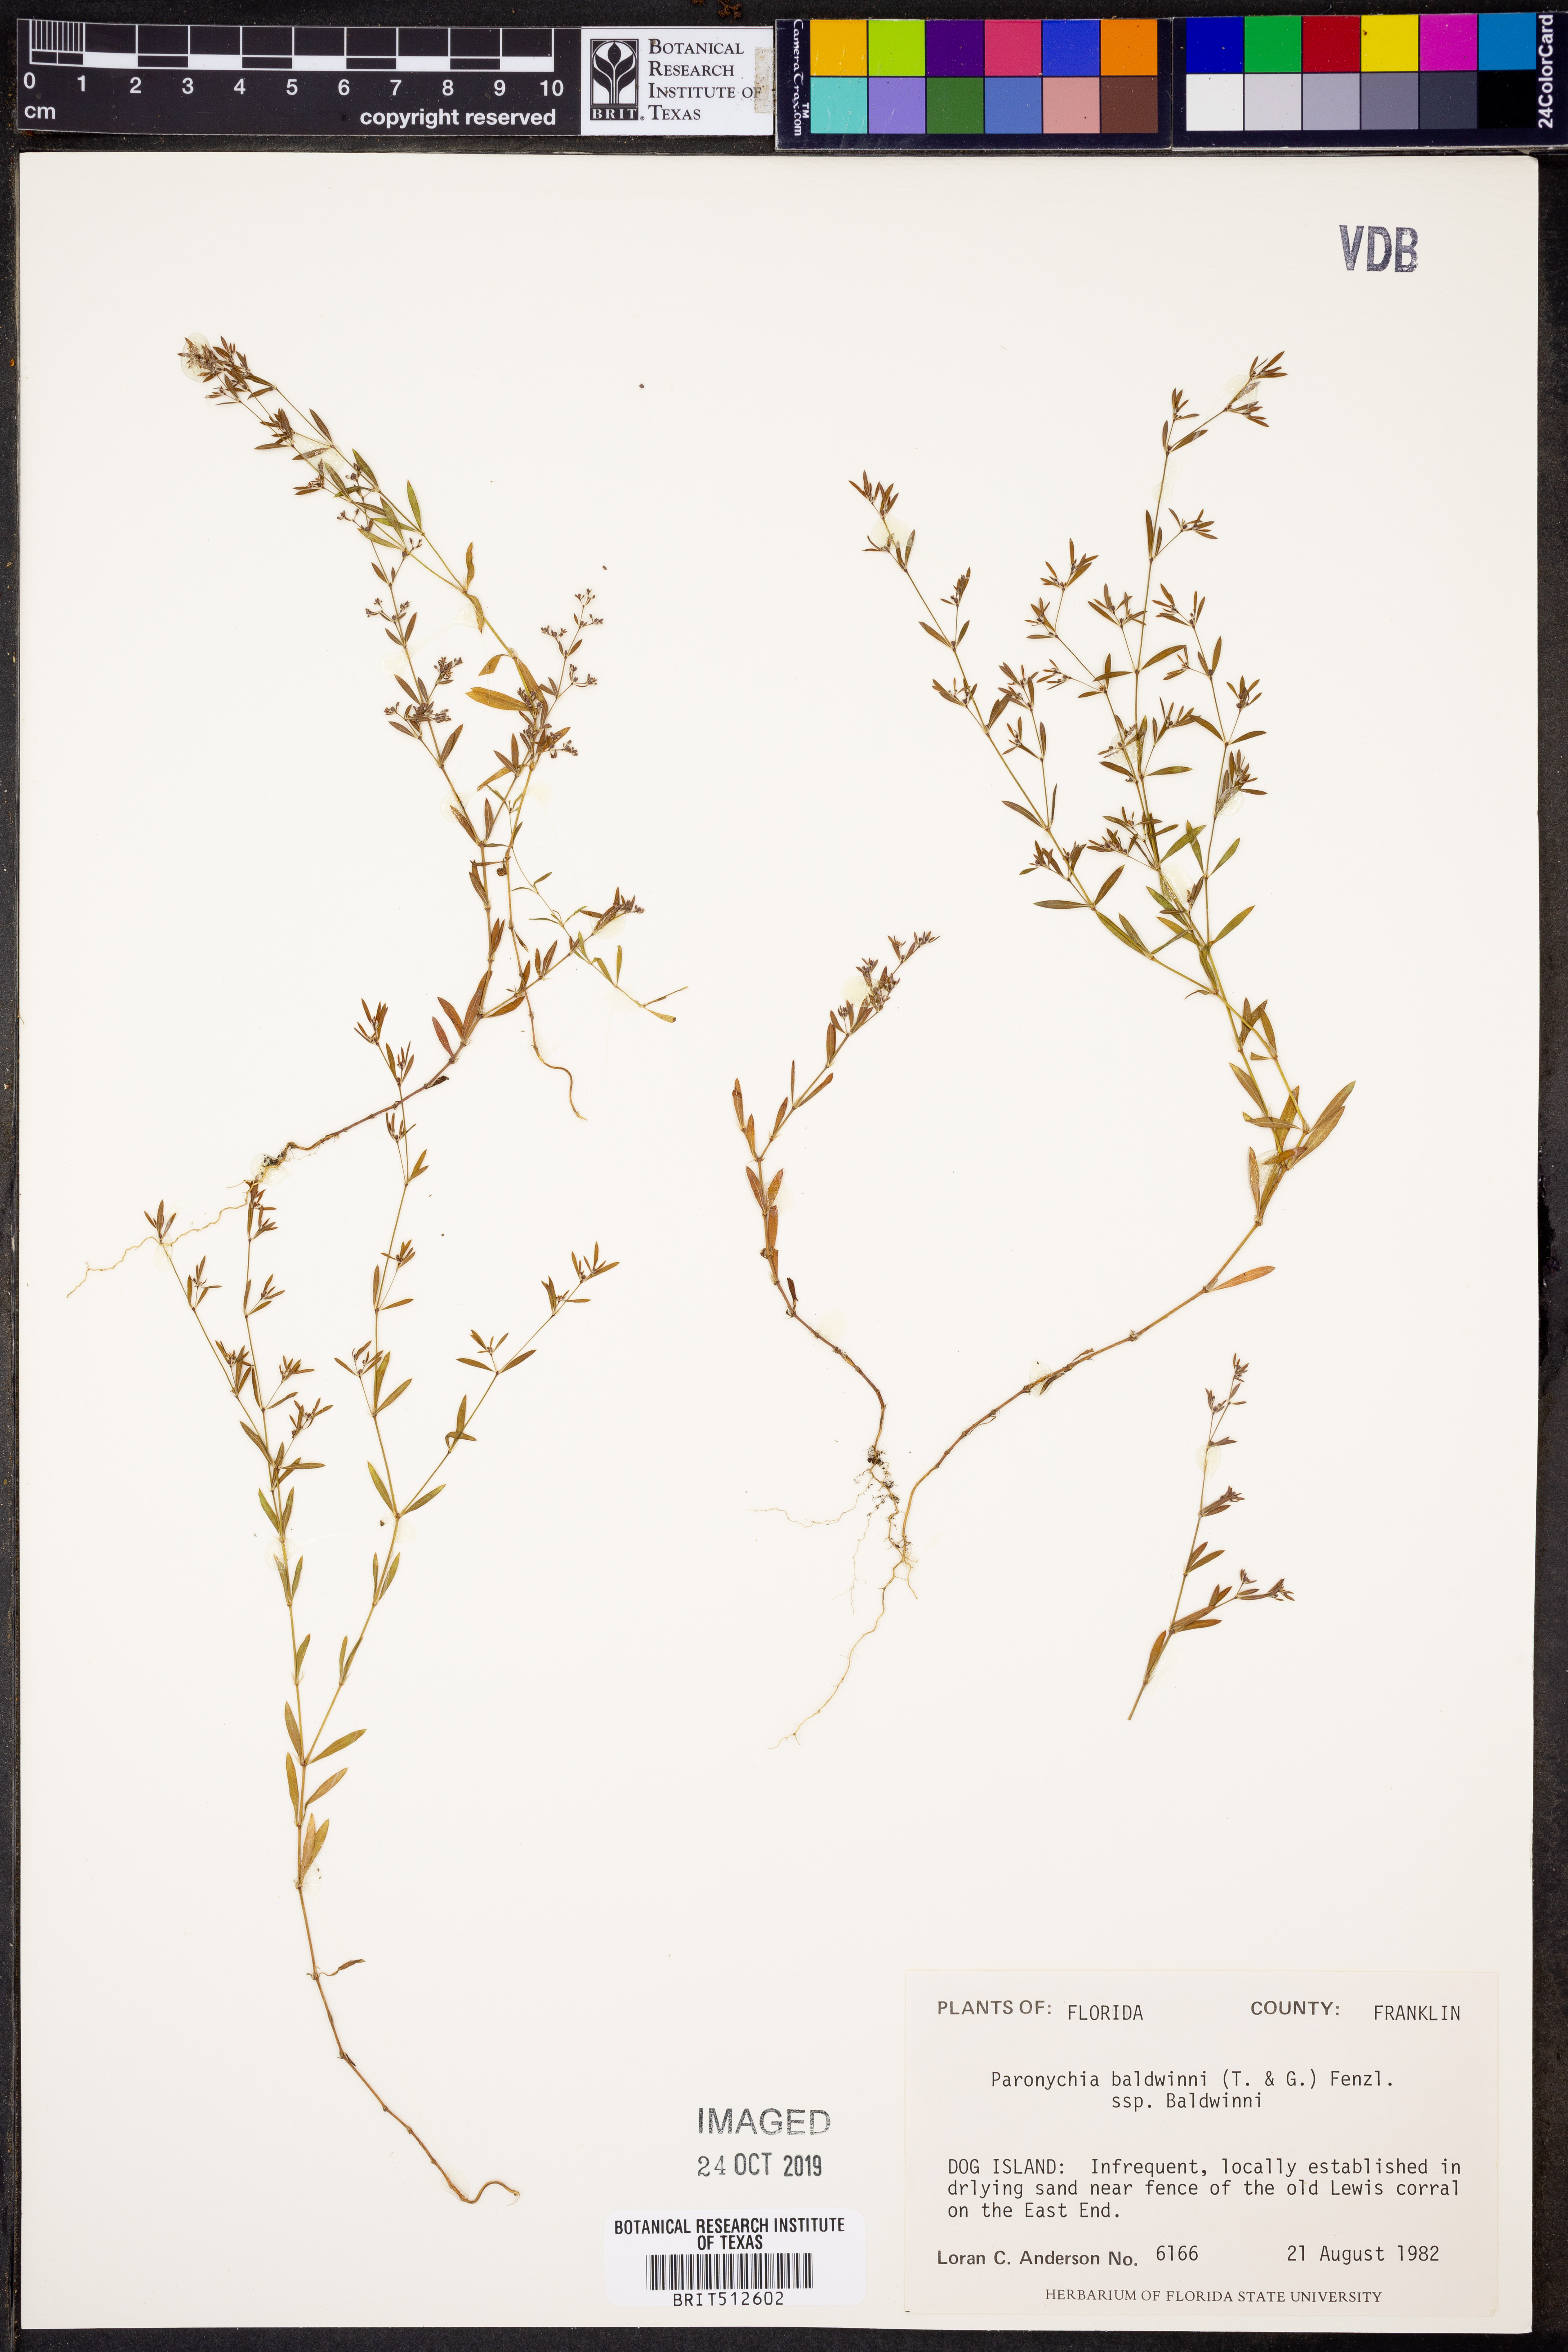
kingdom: Plantae
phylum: Tracheophyta
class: Magnoliopsida
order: Caryophyllales
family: Caryophyllaceae
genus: Paronychia
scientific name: Paronychia baldwinii
